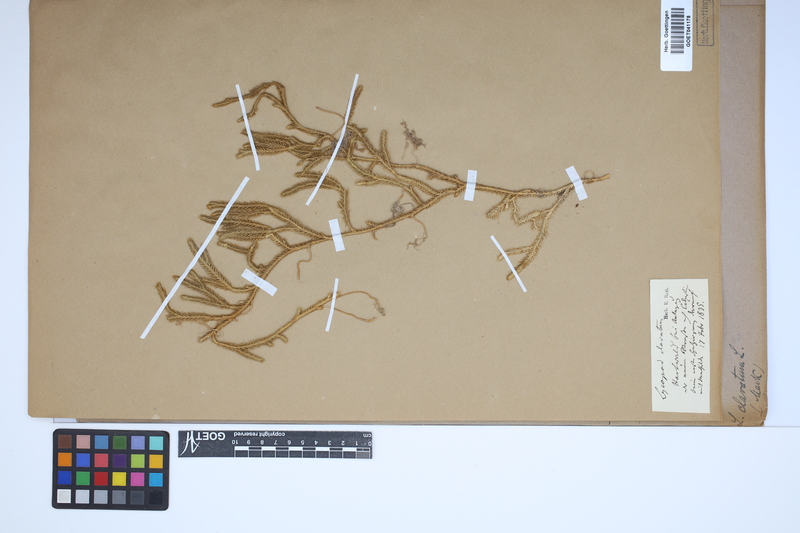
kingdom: Plantae
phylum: Tracheophyta
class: Lycopodiopsida
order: Lycopodiales
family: Lycopodiaceae
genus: Lycopodium
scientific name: Lycopodium clavatum
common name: Stag's-horn clubmoss
